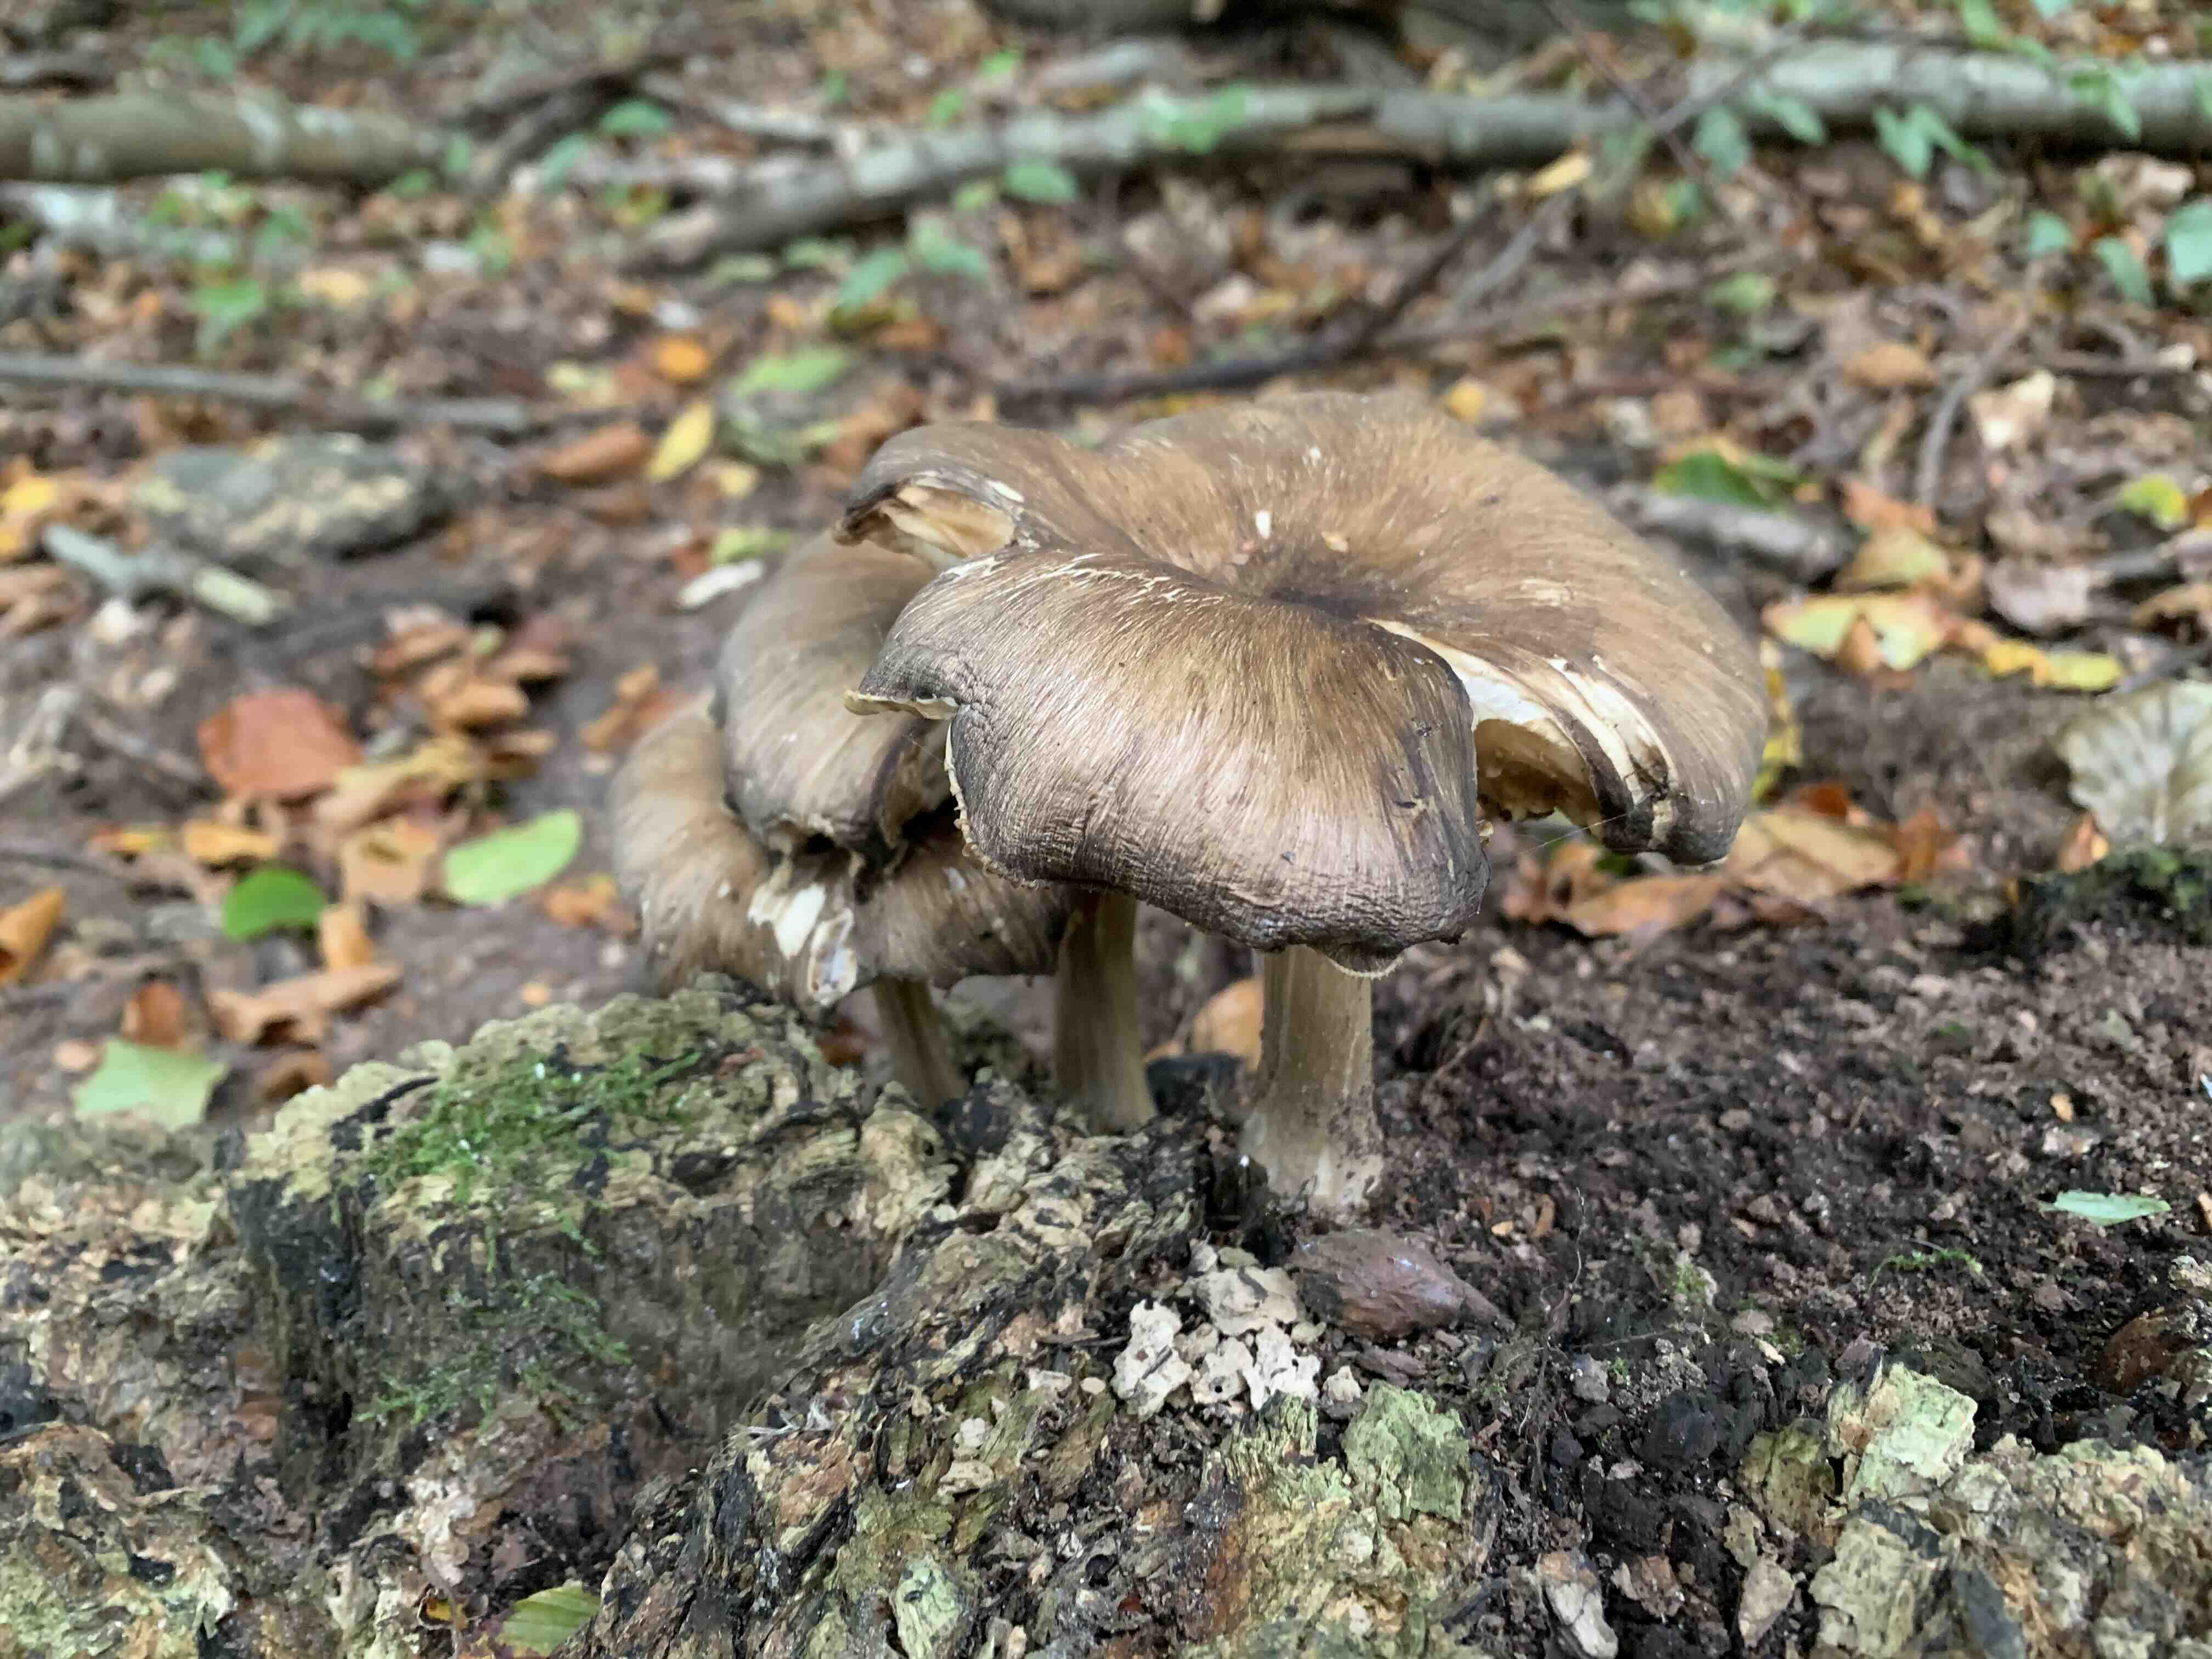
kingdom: Fungi
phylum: Basidiomycota
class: Agaricomycetes
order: Agaricales
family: Tricholomataceae
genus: Megacollybia
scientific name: Megacollybia platyphylla
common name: bredbladet væbnerhat
